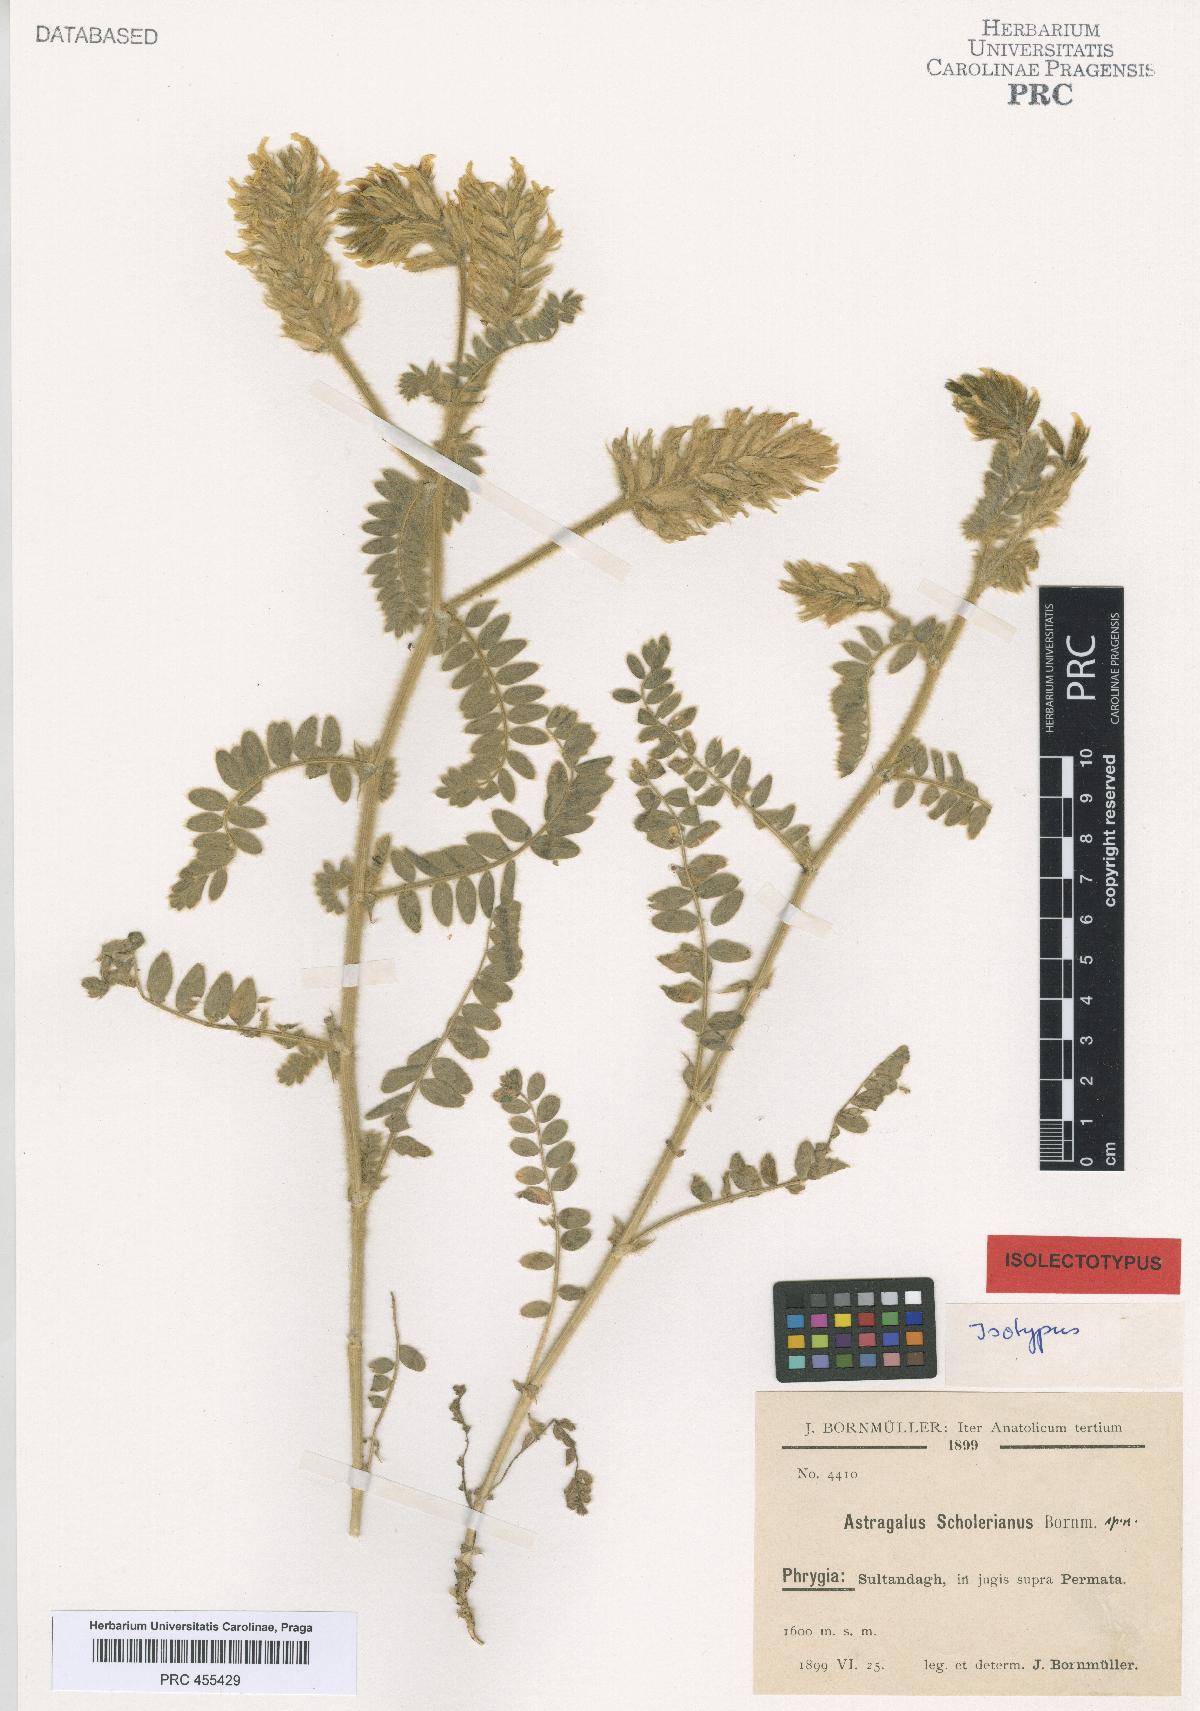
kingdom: Plantae
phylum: Tracheophyta
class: Magnoliopsida
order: Fabales
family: Fabaceae
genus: Astragalus
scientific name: Astragalus scholerianus
